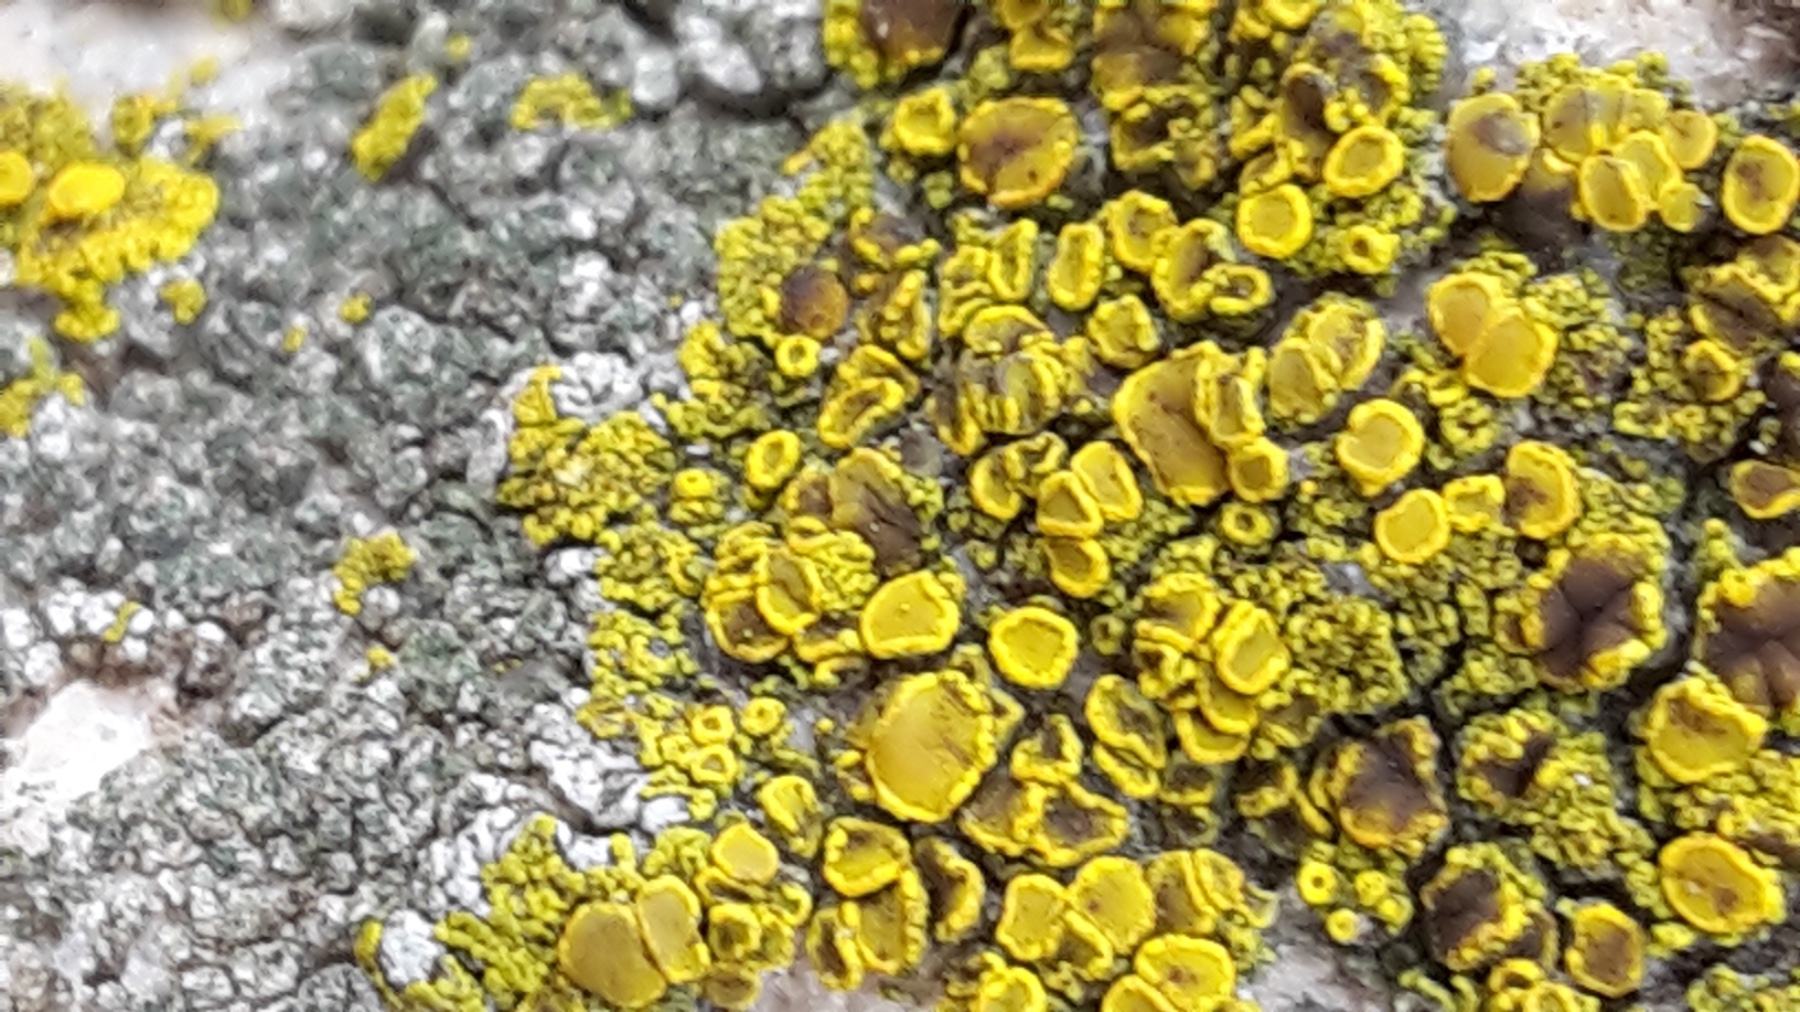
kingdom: Fungi
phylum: Ascomycota
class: Candelariomycetes
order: Candelariales
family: Candelariaceae
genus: Candelariella
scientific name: Candelariella vitellina
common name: almindelig æggeblommelav
